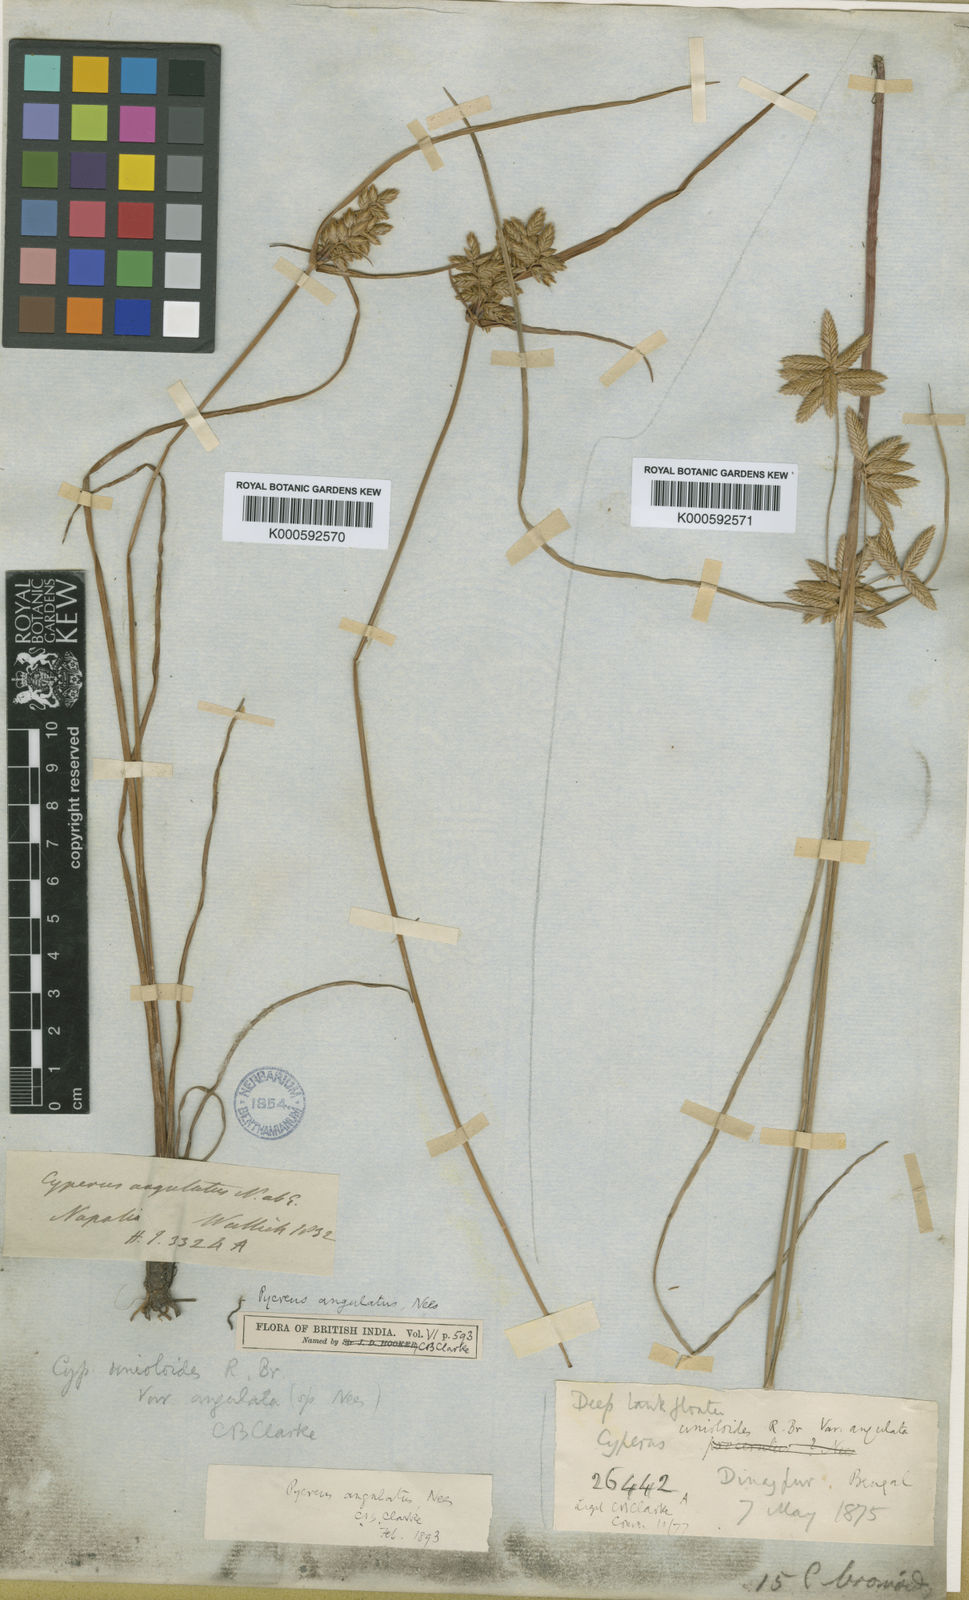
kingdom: Plantae
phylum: Tracheophyta
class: Liliopsida
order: Poales
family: Cyperaceae
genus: Cyperus
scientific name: Cyperus unioloides
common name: Uniola flatsedge
